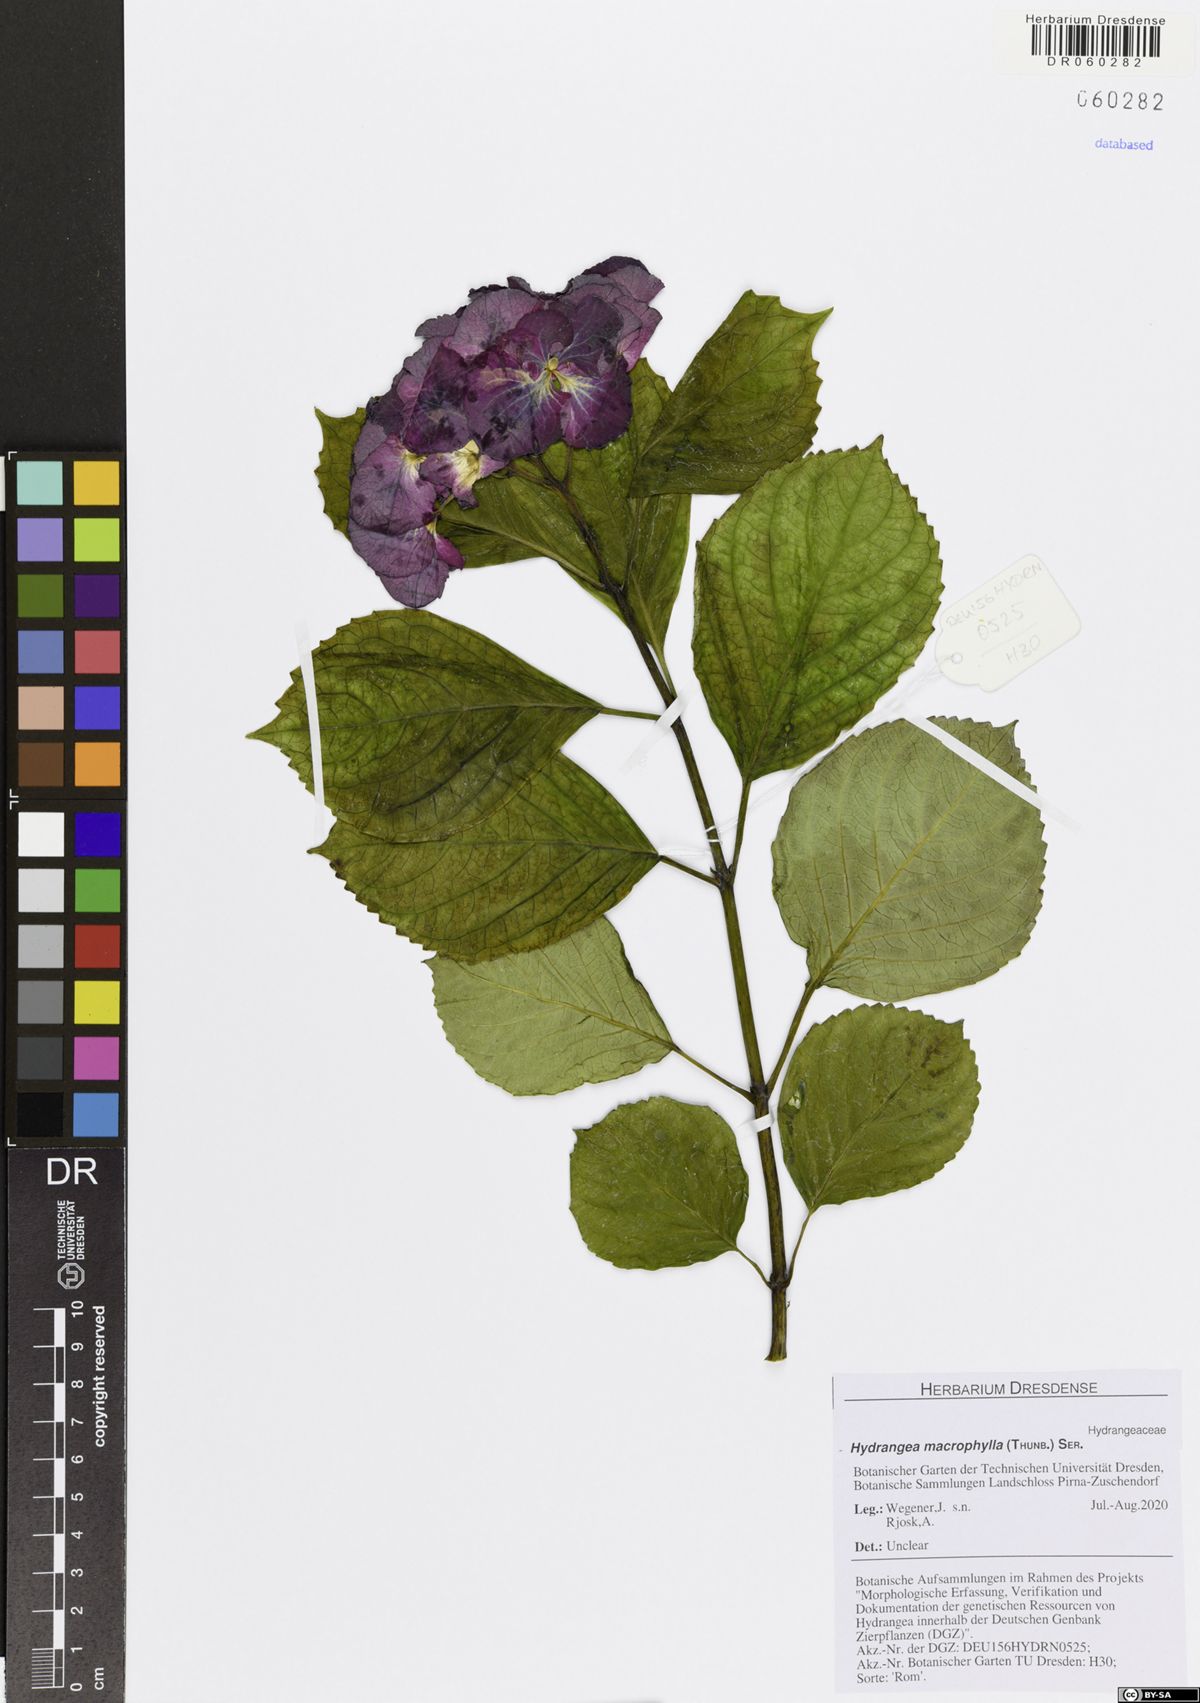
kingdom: Plantae
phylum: Tracheophyta
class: Magnoliopsida
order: Cornales
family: Hydrangeaceae
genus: Hydrangea
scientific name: Hydrangea macrophylla
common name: Hydrangea
